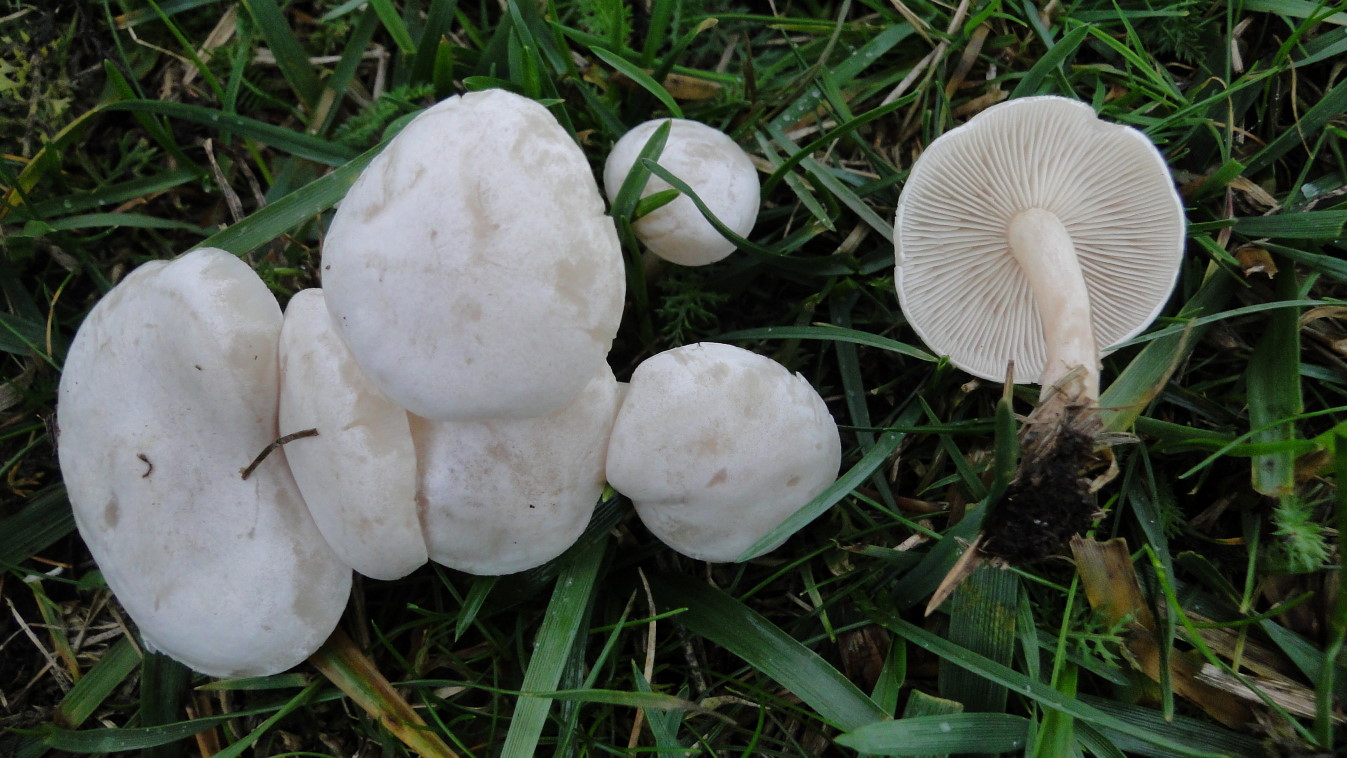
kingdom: Fungi
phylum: Basidiomycota
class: Agaricomycetes
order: Agaricales
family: Tricholomataceae
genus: Clitocybe
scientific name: Clitocybe rivulosa
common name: eng-tragthat
